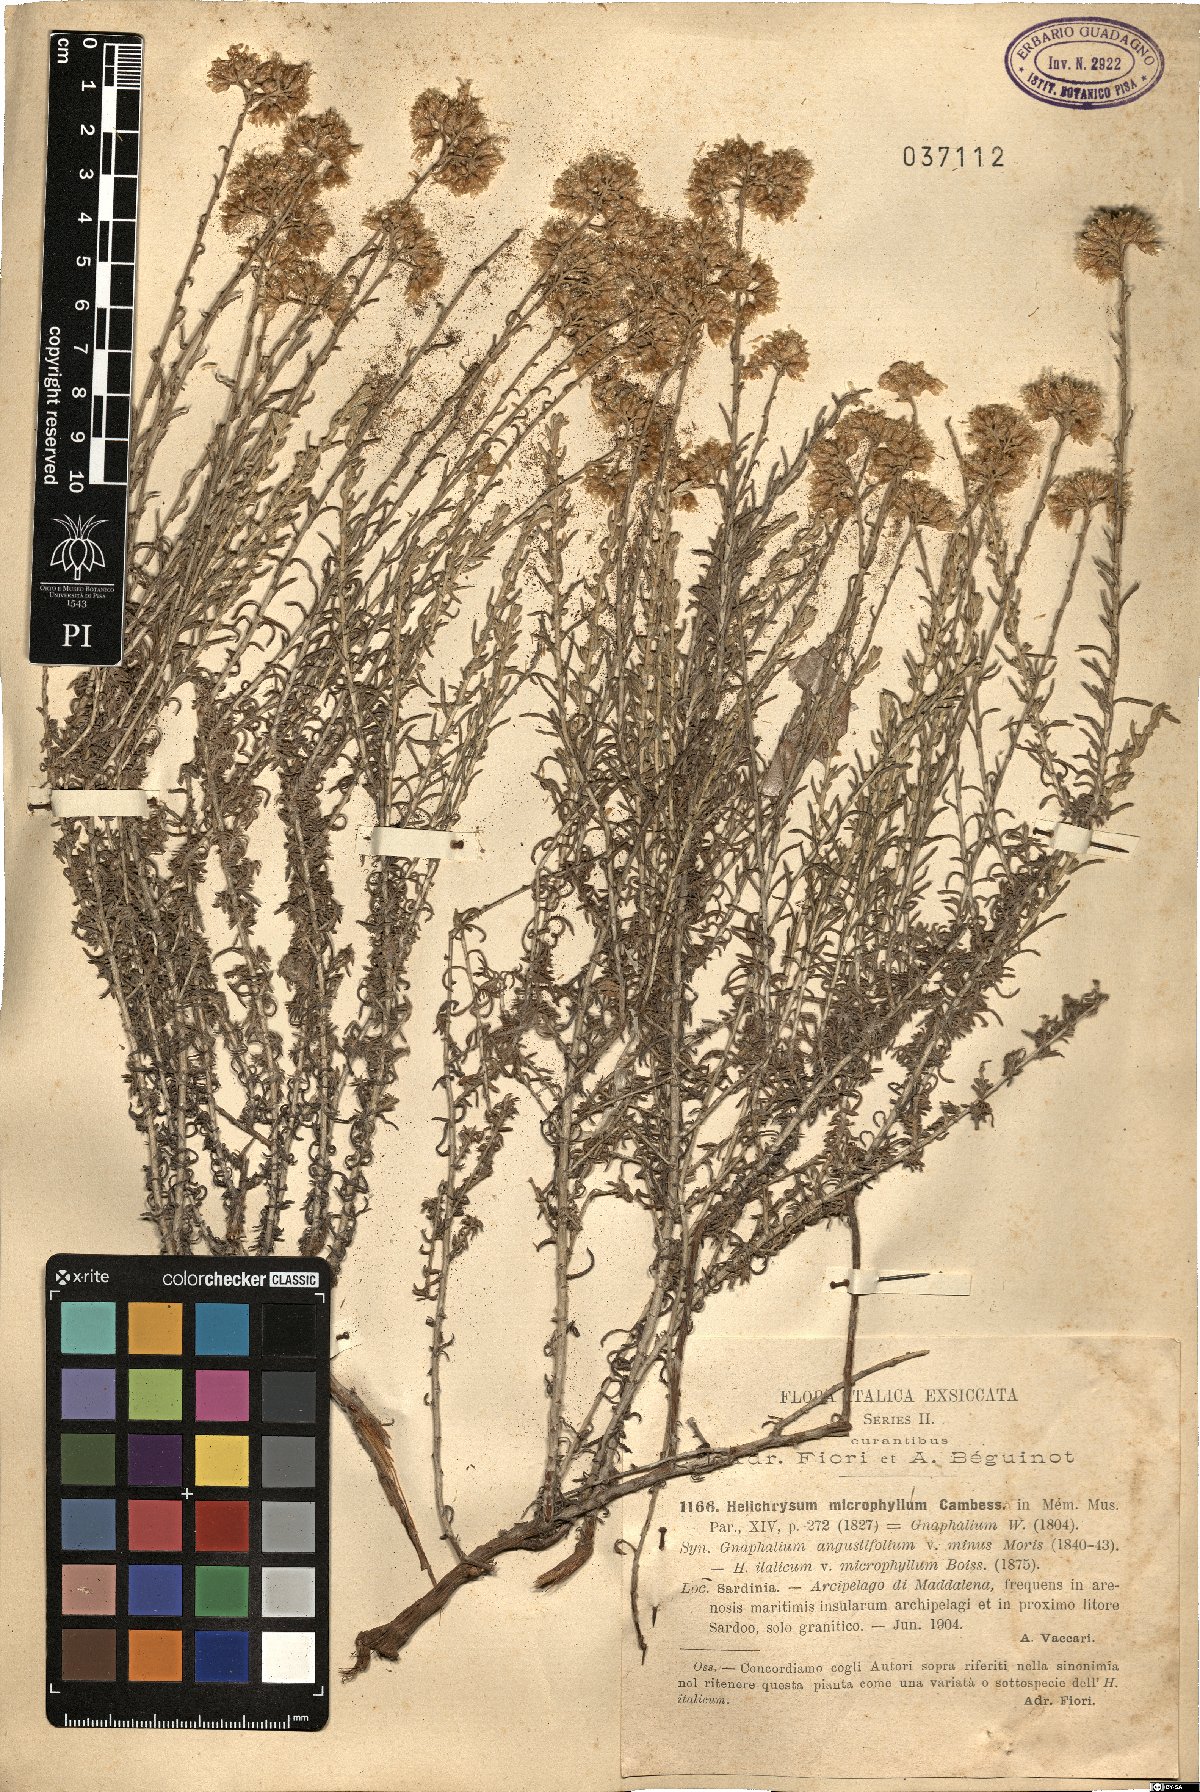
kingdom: Plantae
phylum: Tracheophyta
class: Magnoliopsida
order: Asterales
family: Asteraceae
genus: Helichrysum
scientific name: Helichrysum italicum
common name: Curryplant
